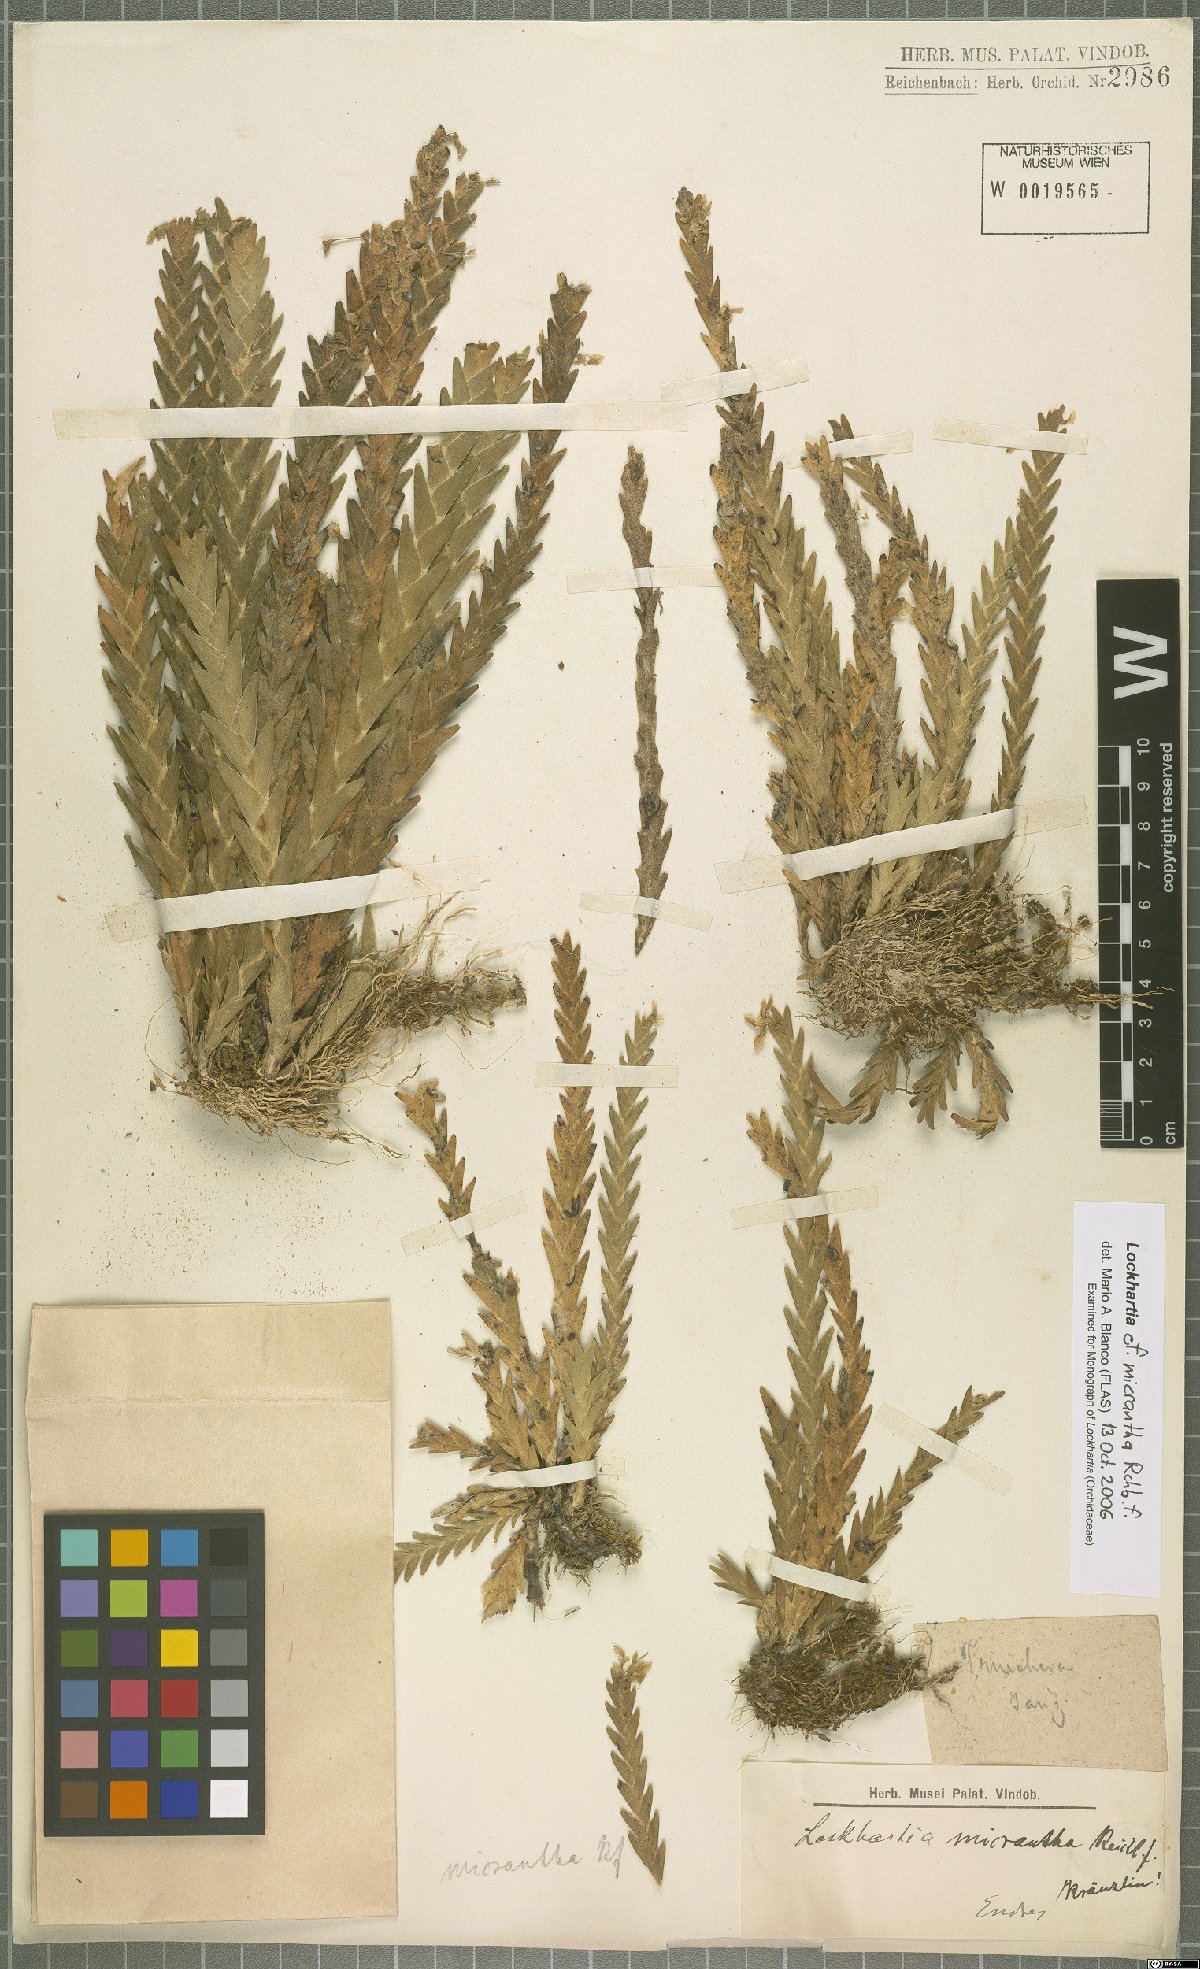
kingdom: Plantae
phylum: Tracheophyta
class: Liliopsida
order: Asparagales
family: Orchidaceae
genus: Lockhartia
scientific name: Lockhartia micrantha
